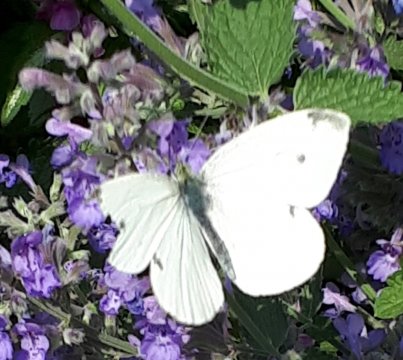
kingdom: Animalia
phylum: Arthropoda
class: Insecta
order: Lepidoptera
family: Pieridae
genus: Pieris
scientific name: Pieris rapae
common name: Cabbage White
